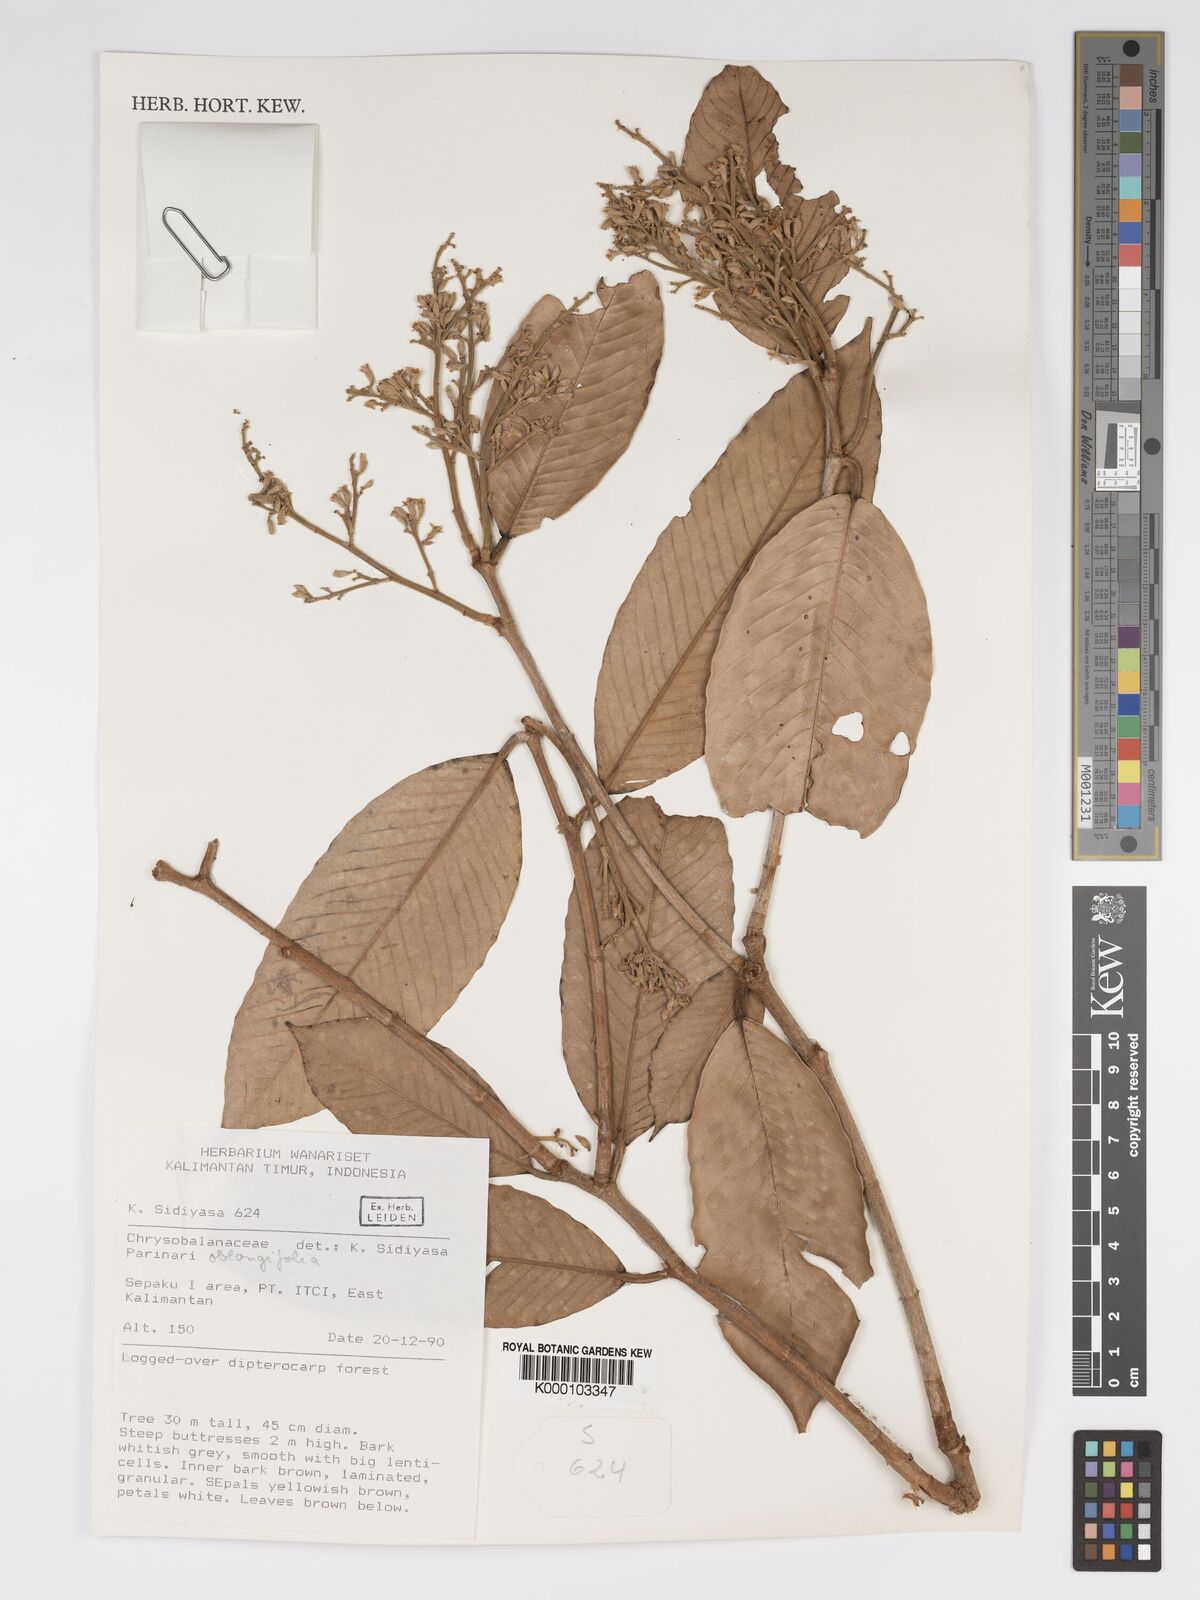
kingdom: Plantae
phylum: Tracheophyta
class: Magnoliopsida
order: Malpighiales
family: Chrysobalanaceae
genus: Parinari
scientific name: Parinari oblongifolia
